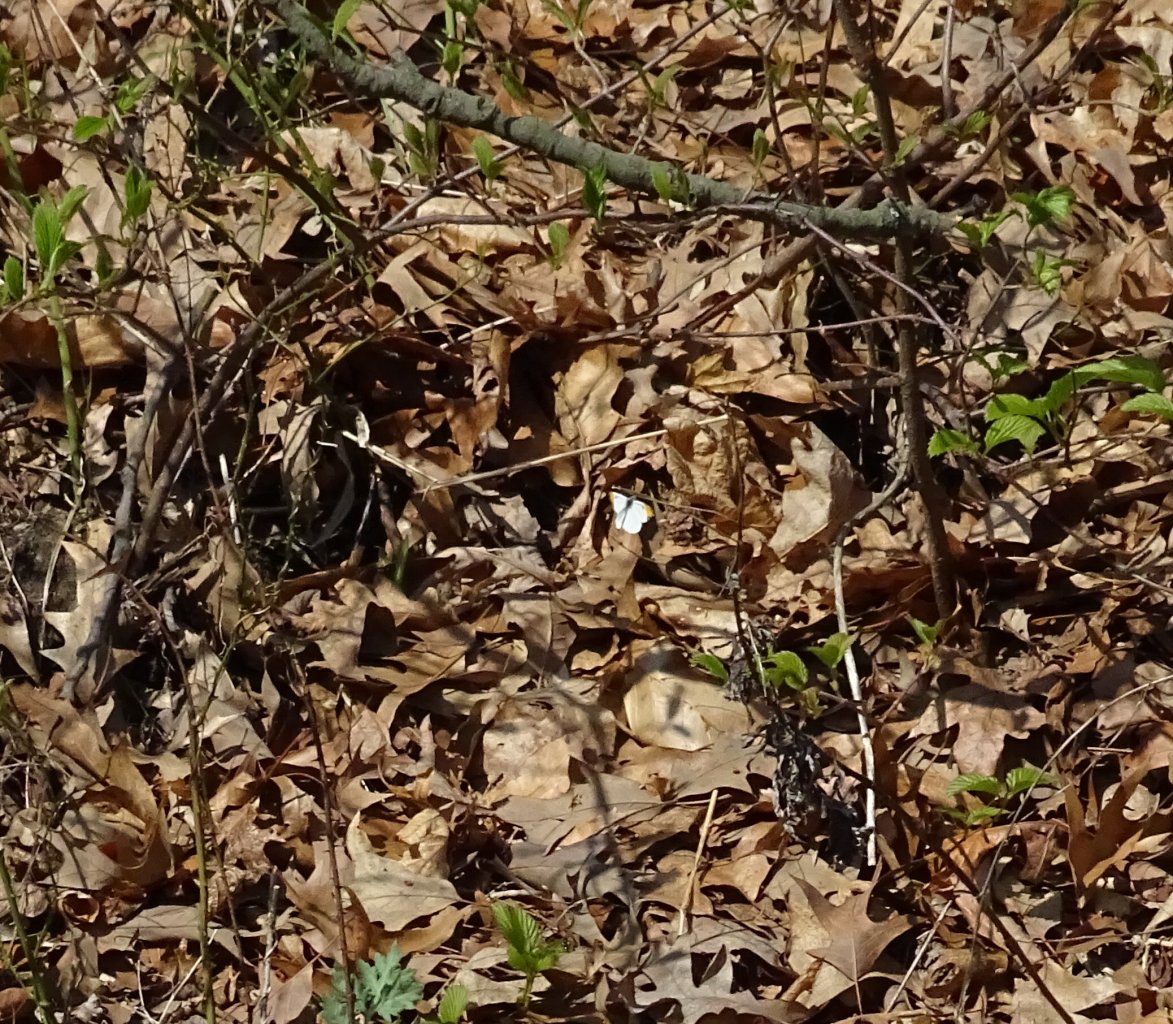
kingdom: Animalia
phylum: Arthropoda
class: Insecta
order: Lepidoptera
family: Pieridae
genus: Anthocharis
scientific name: Anthocharis midea
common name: Falcate Orangetip
